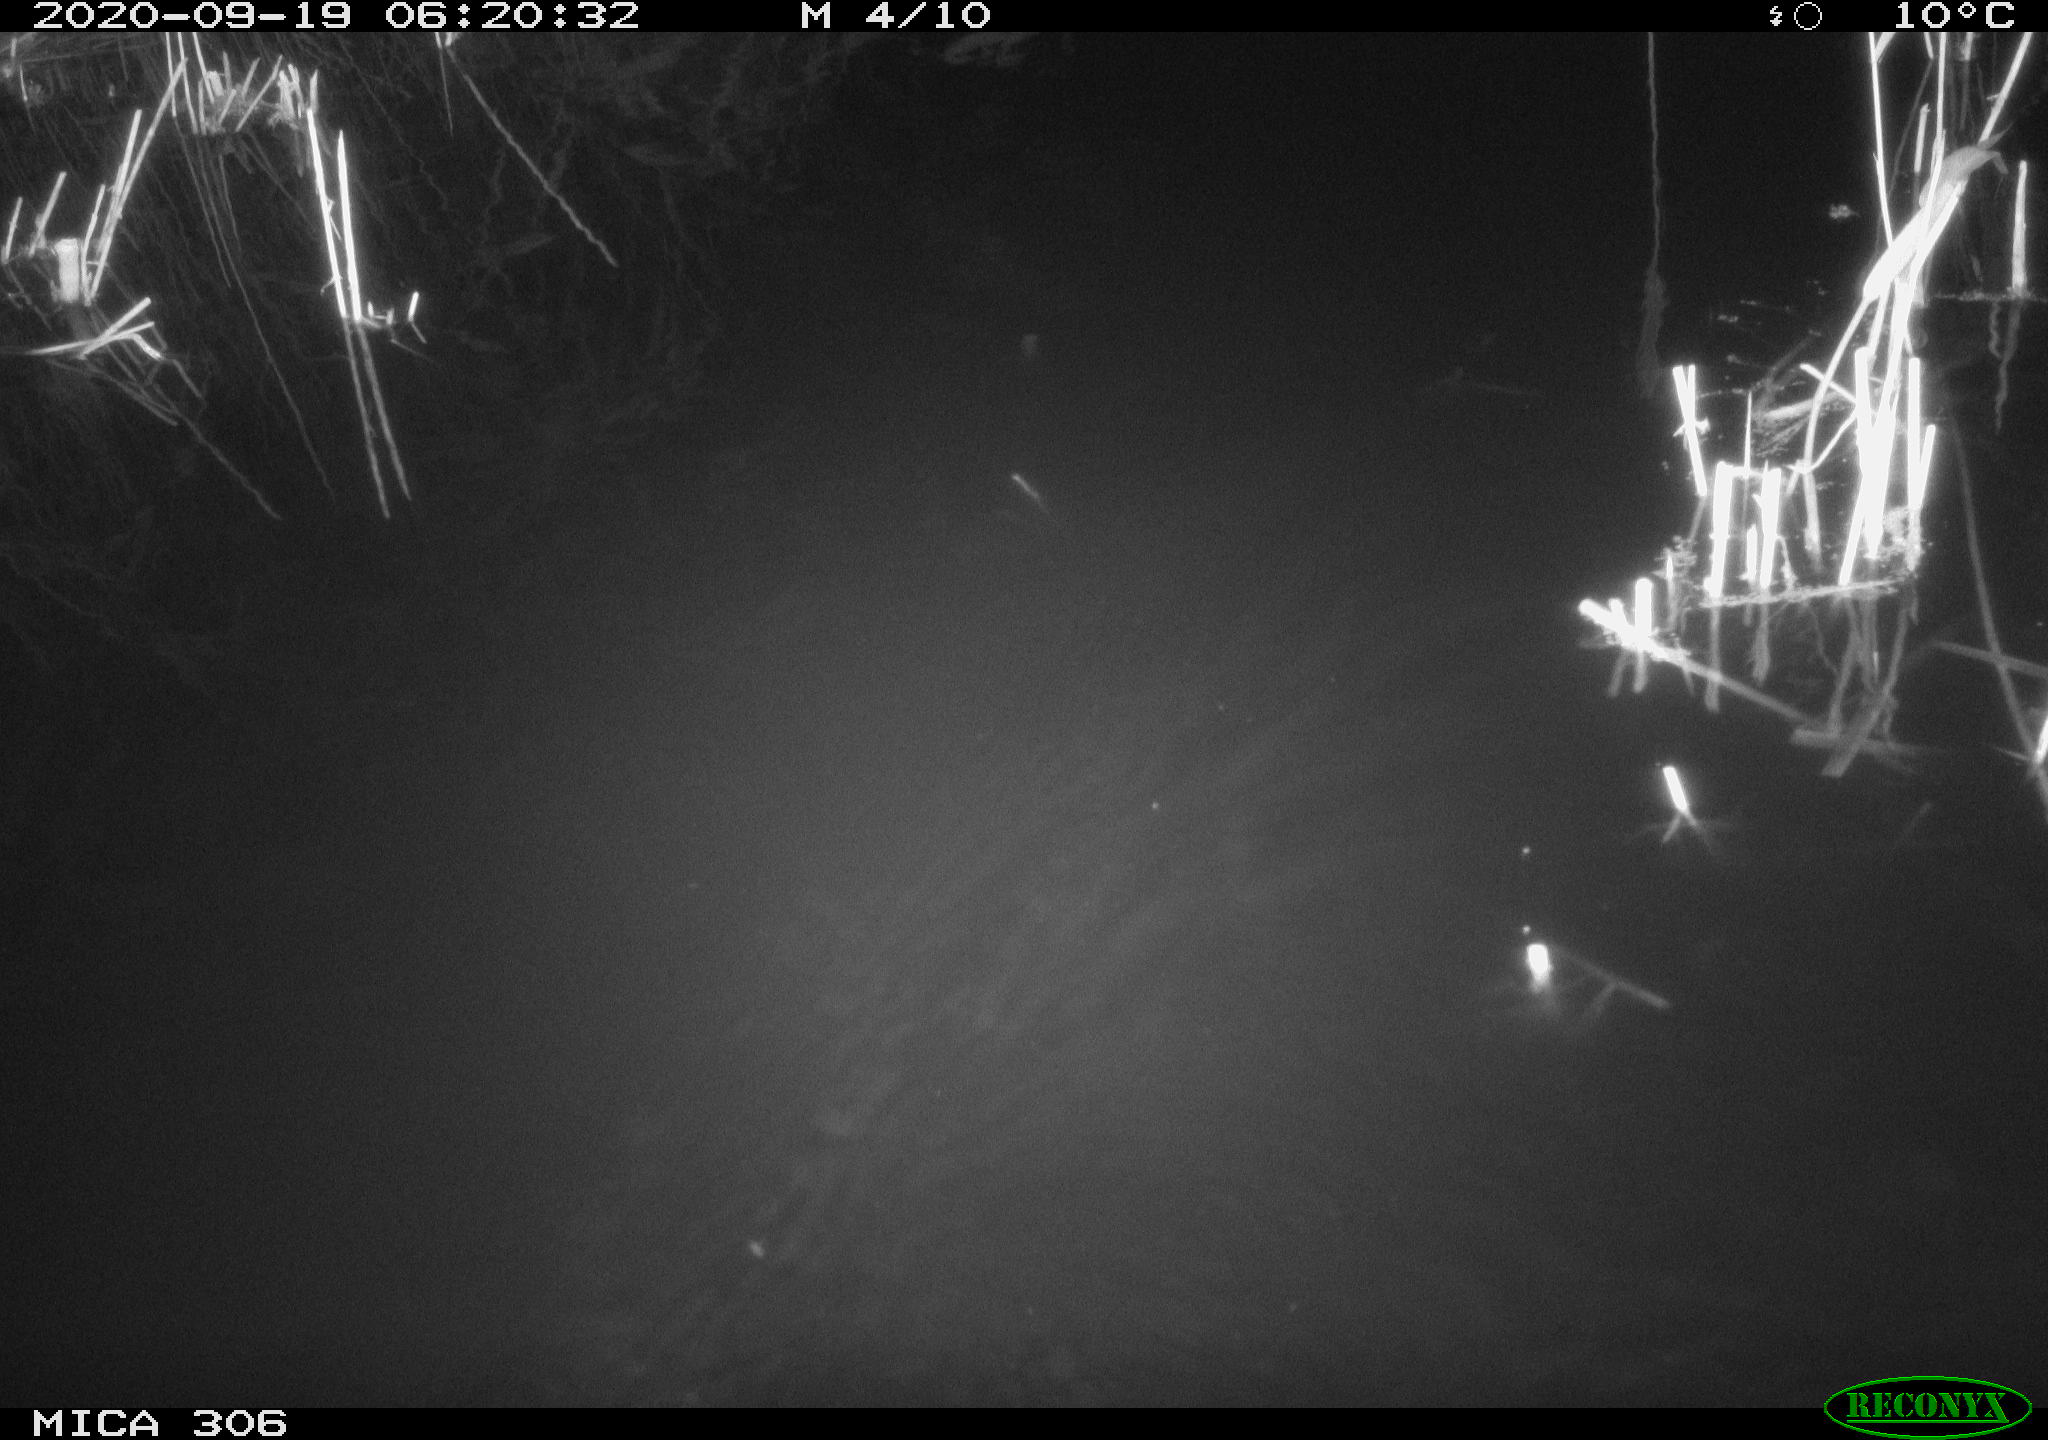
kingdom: Animalia
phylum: Chordata
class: Mammalia
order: Rodentia
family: Muridae
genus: Rattus
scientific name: Rattus norvegicus
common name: Brown rat
